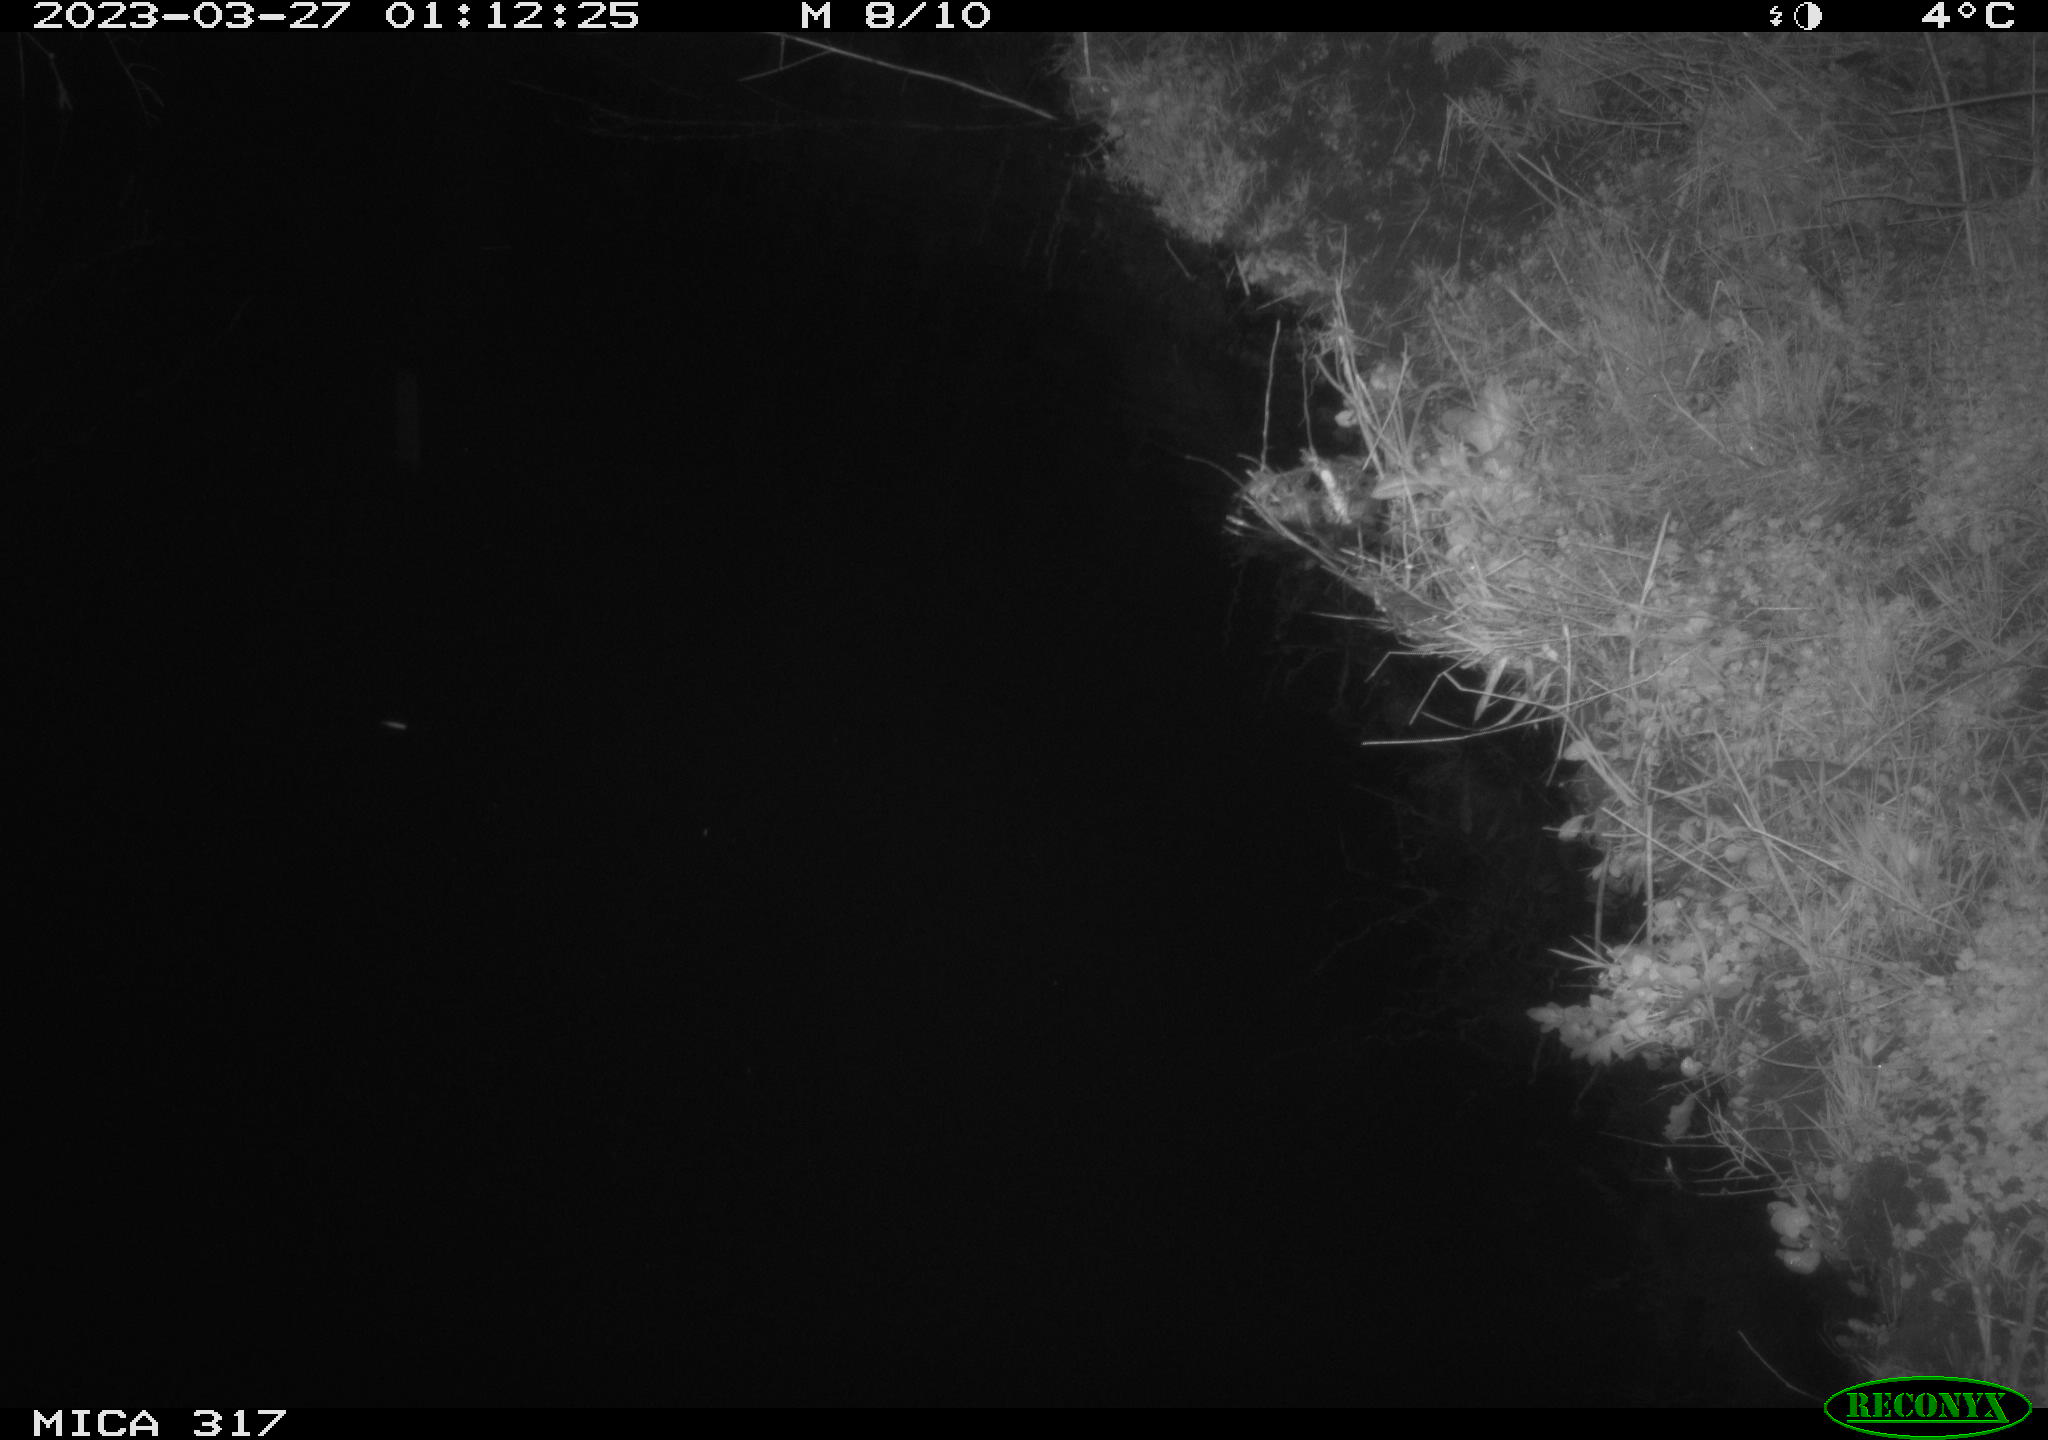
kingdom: Animalia
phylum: Chordata
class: Mammalia
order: Rodentia
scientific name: Rodentia
